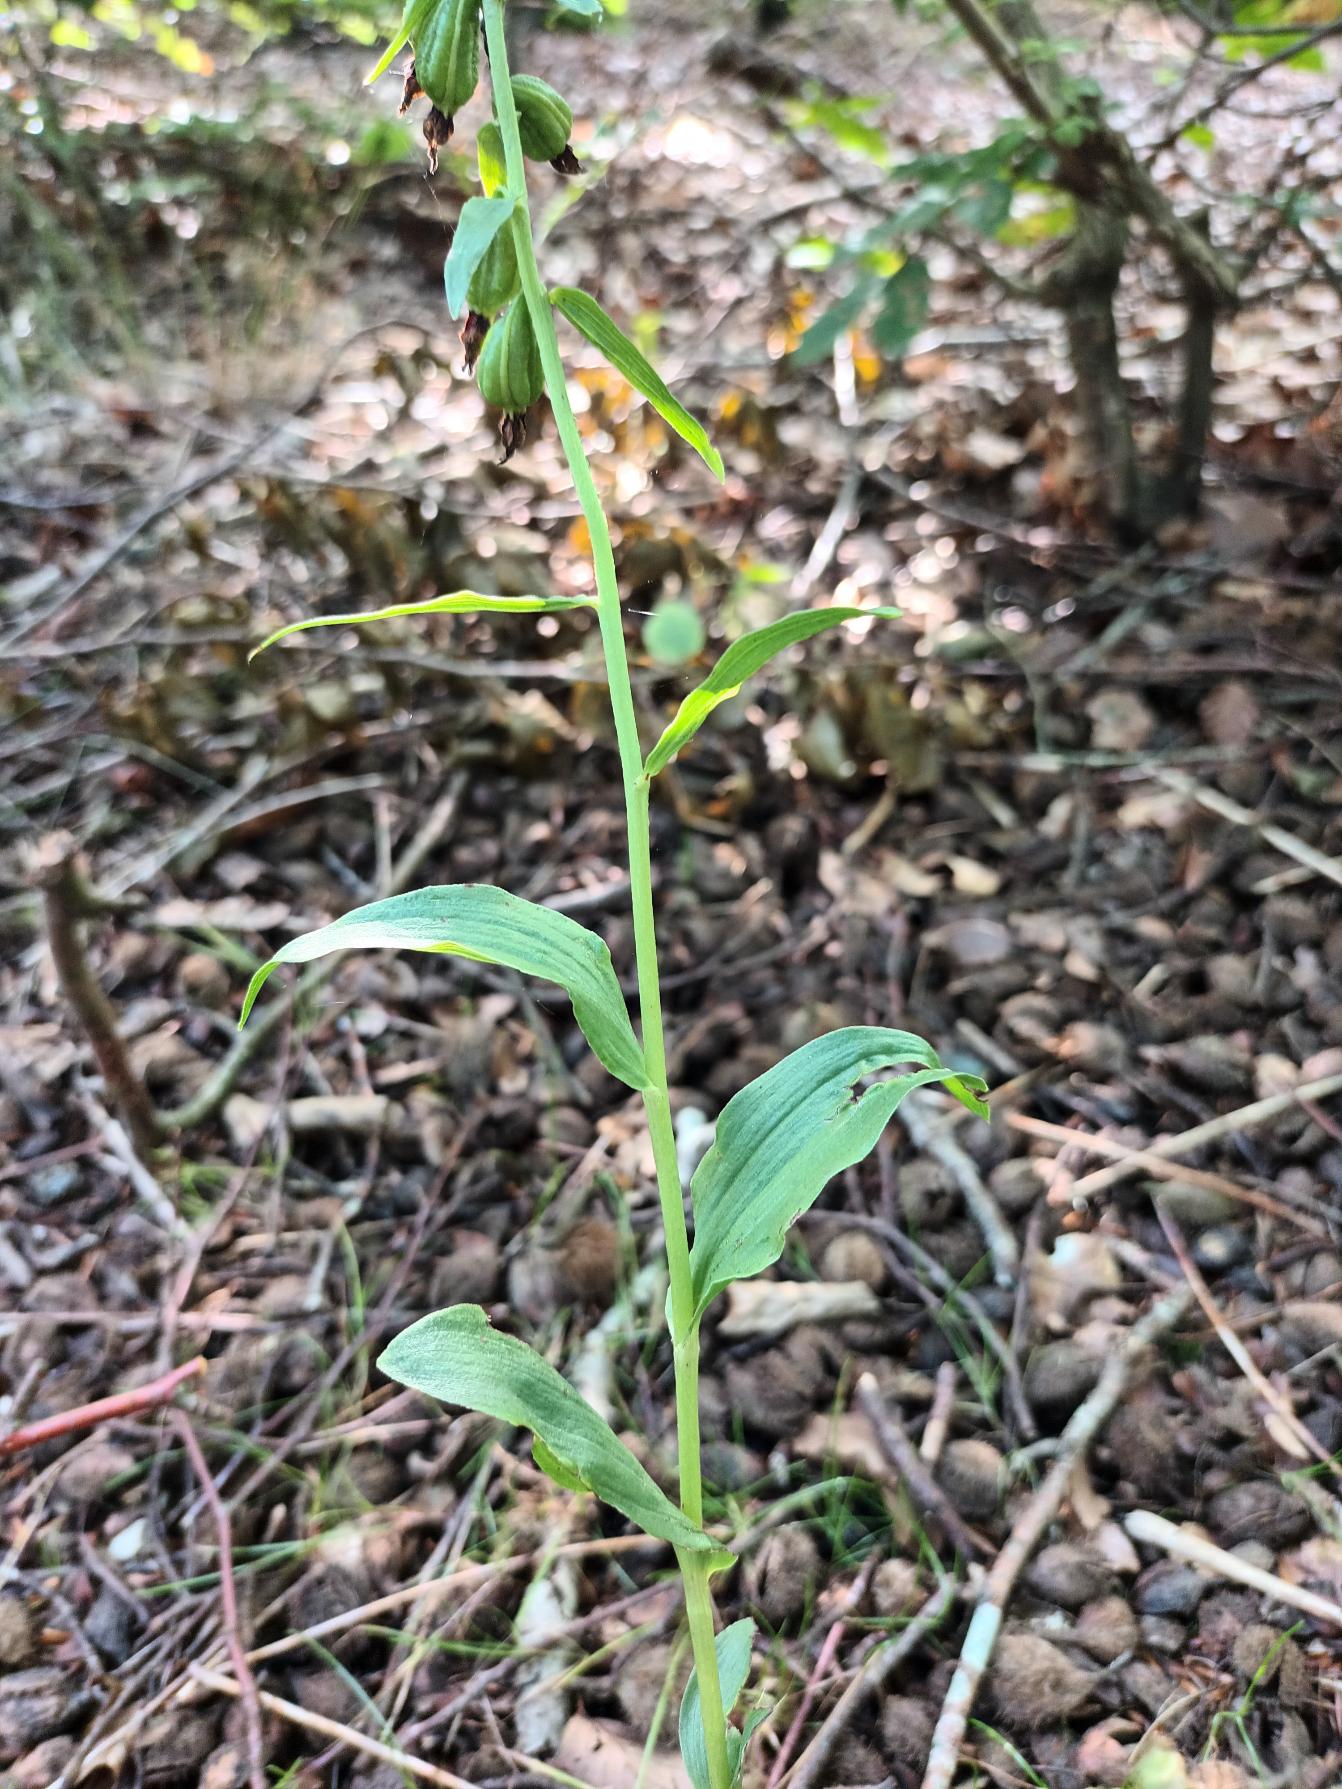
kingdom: Plantae
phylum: Tracheophyta
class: Liliopsida
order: Asparagales
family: Orchidaceae
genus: Epipactis
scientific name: Epipactis phyllanthes
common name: Nikkende hullæbe
